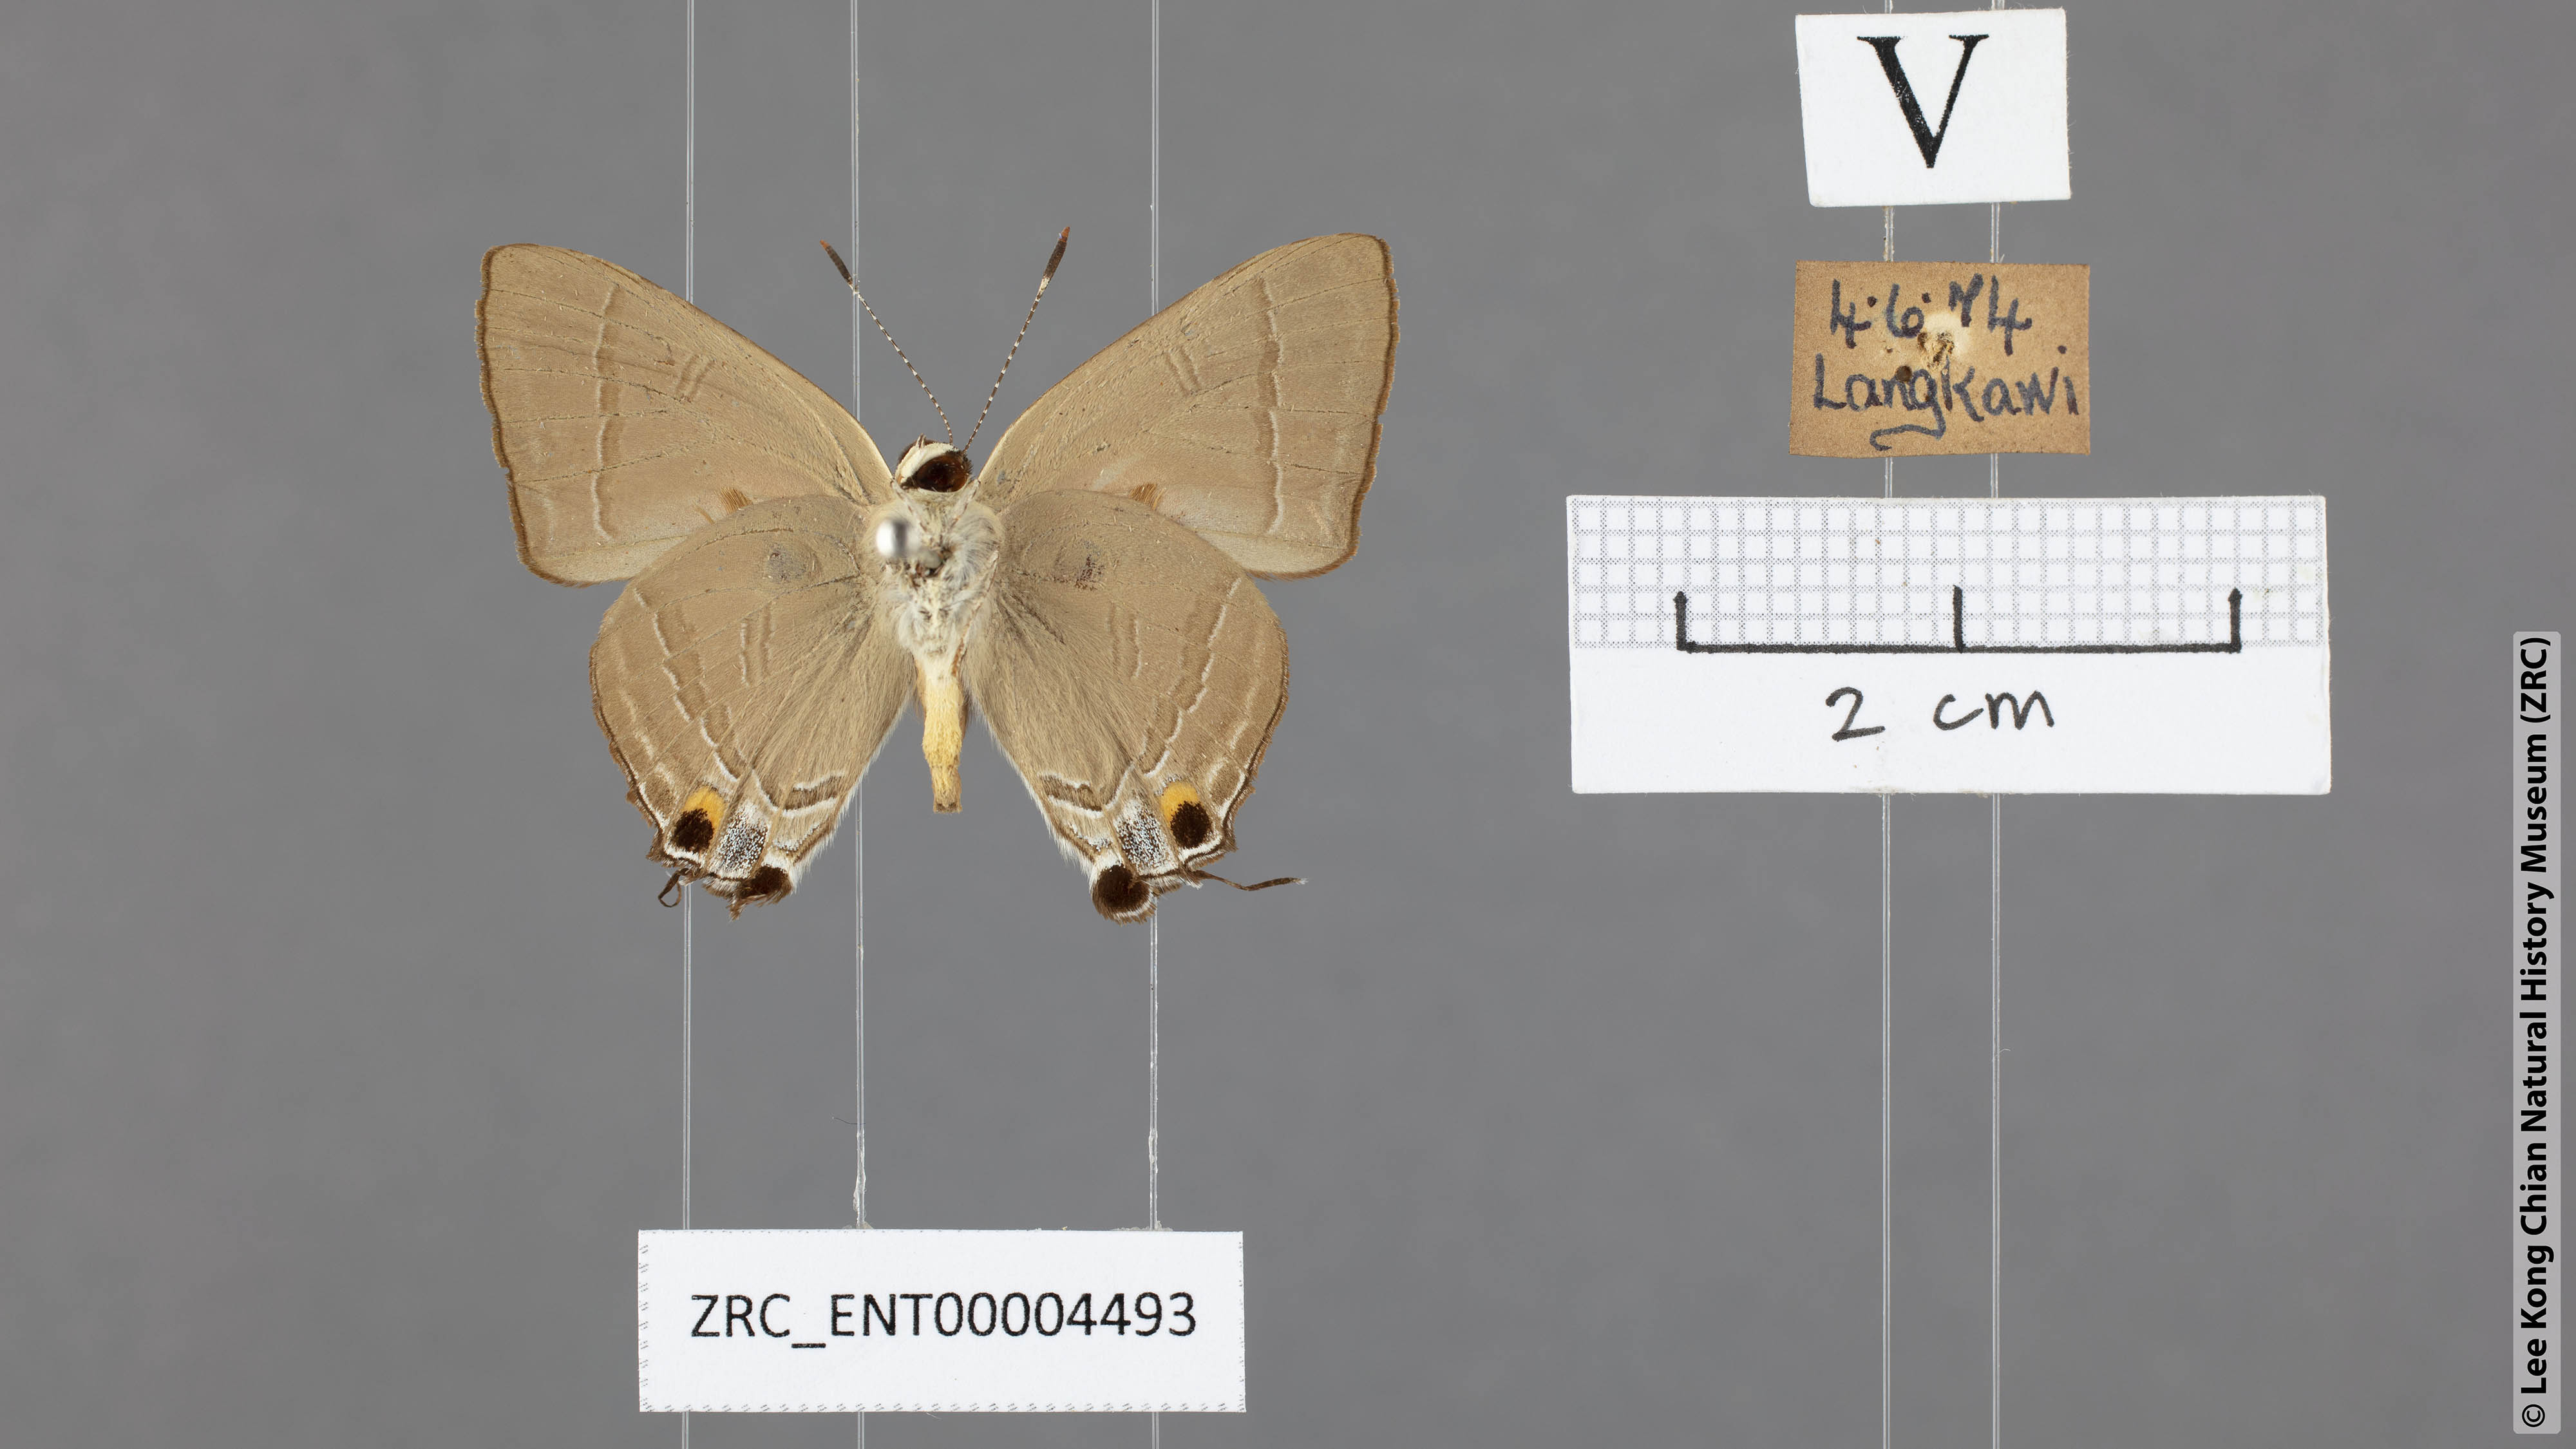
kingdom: Animalia
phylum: Arthropoda
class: Insecta
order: Lepidoptera
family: Lycaenidae
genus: Rapala
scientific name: Rapala iarbas
